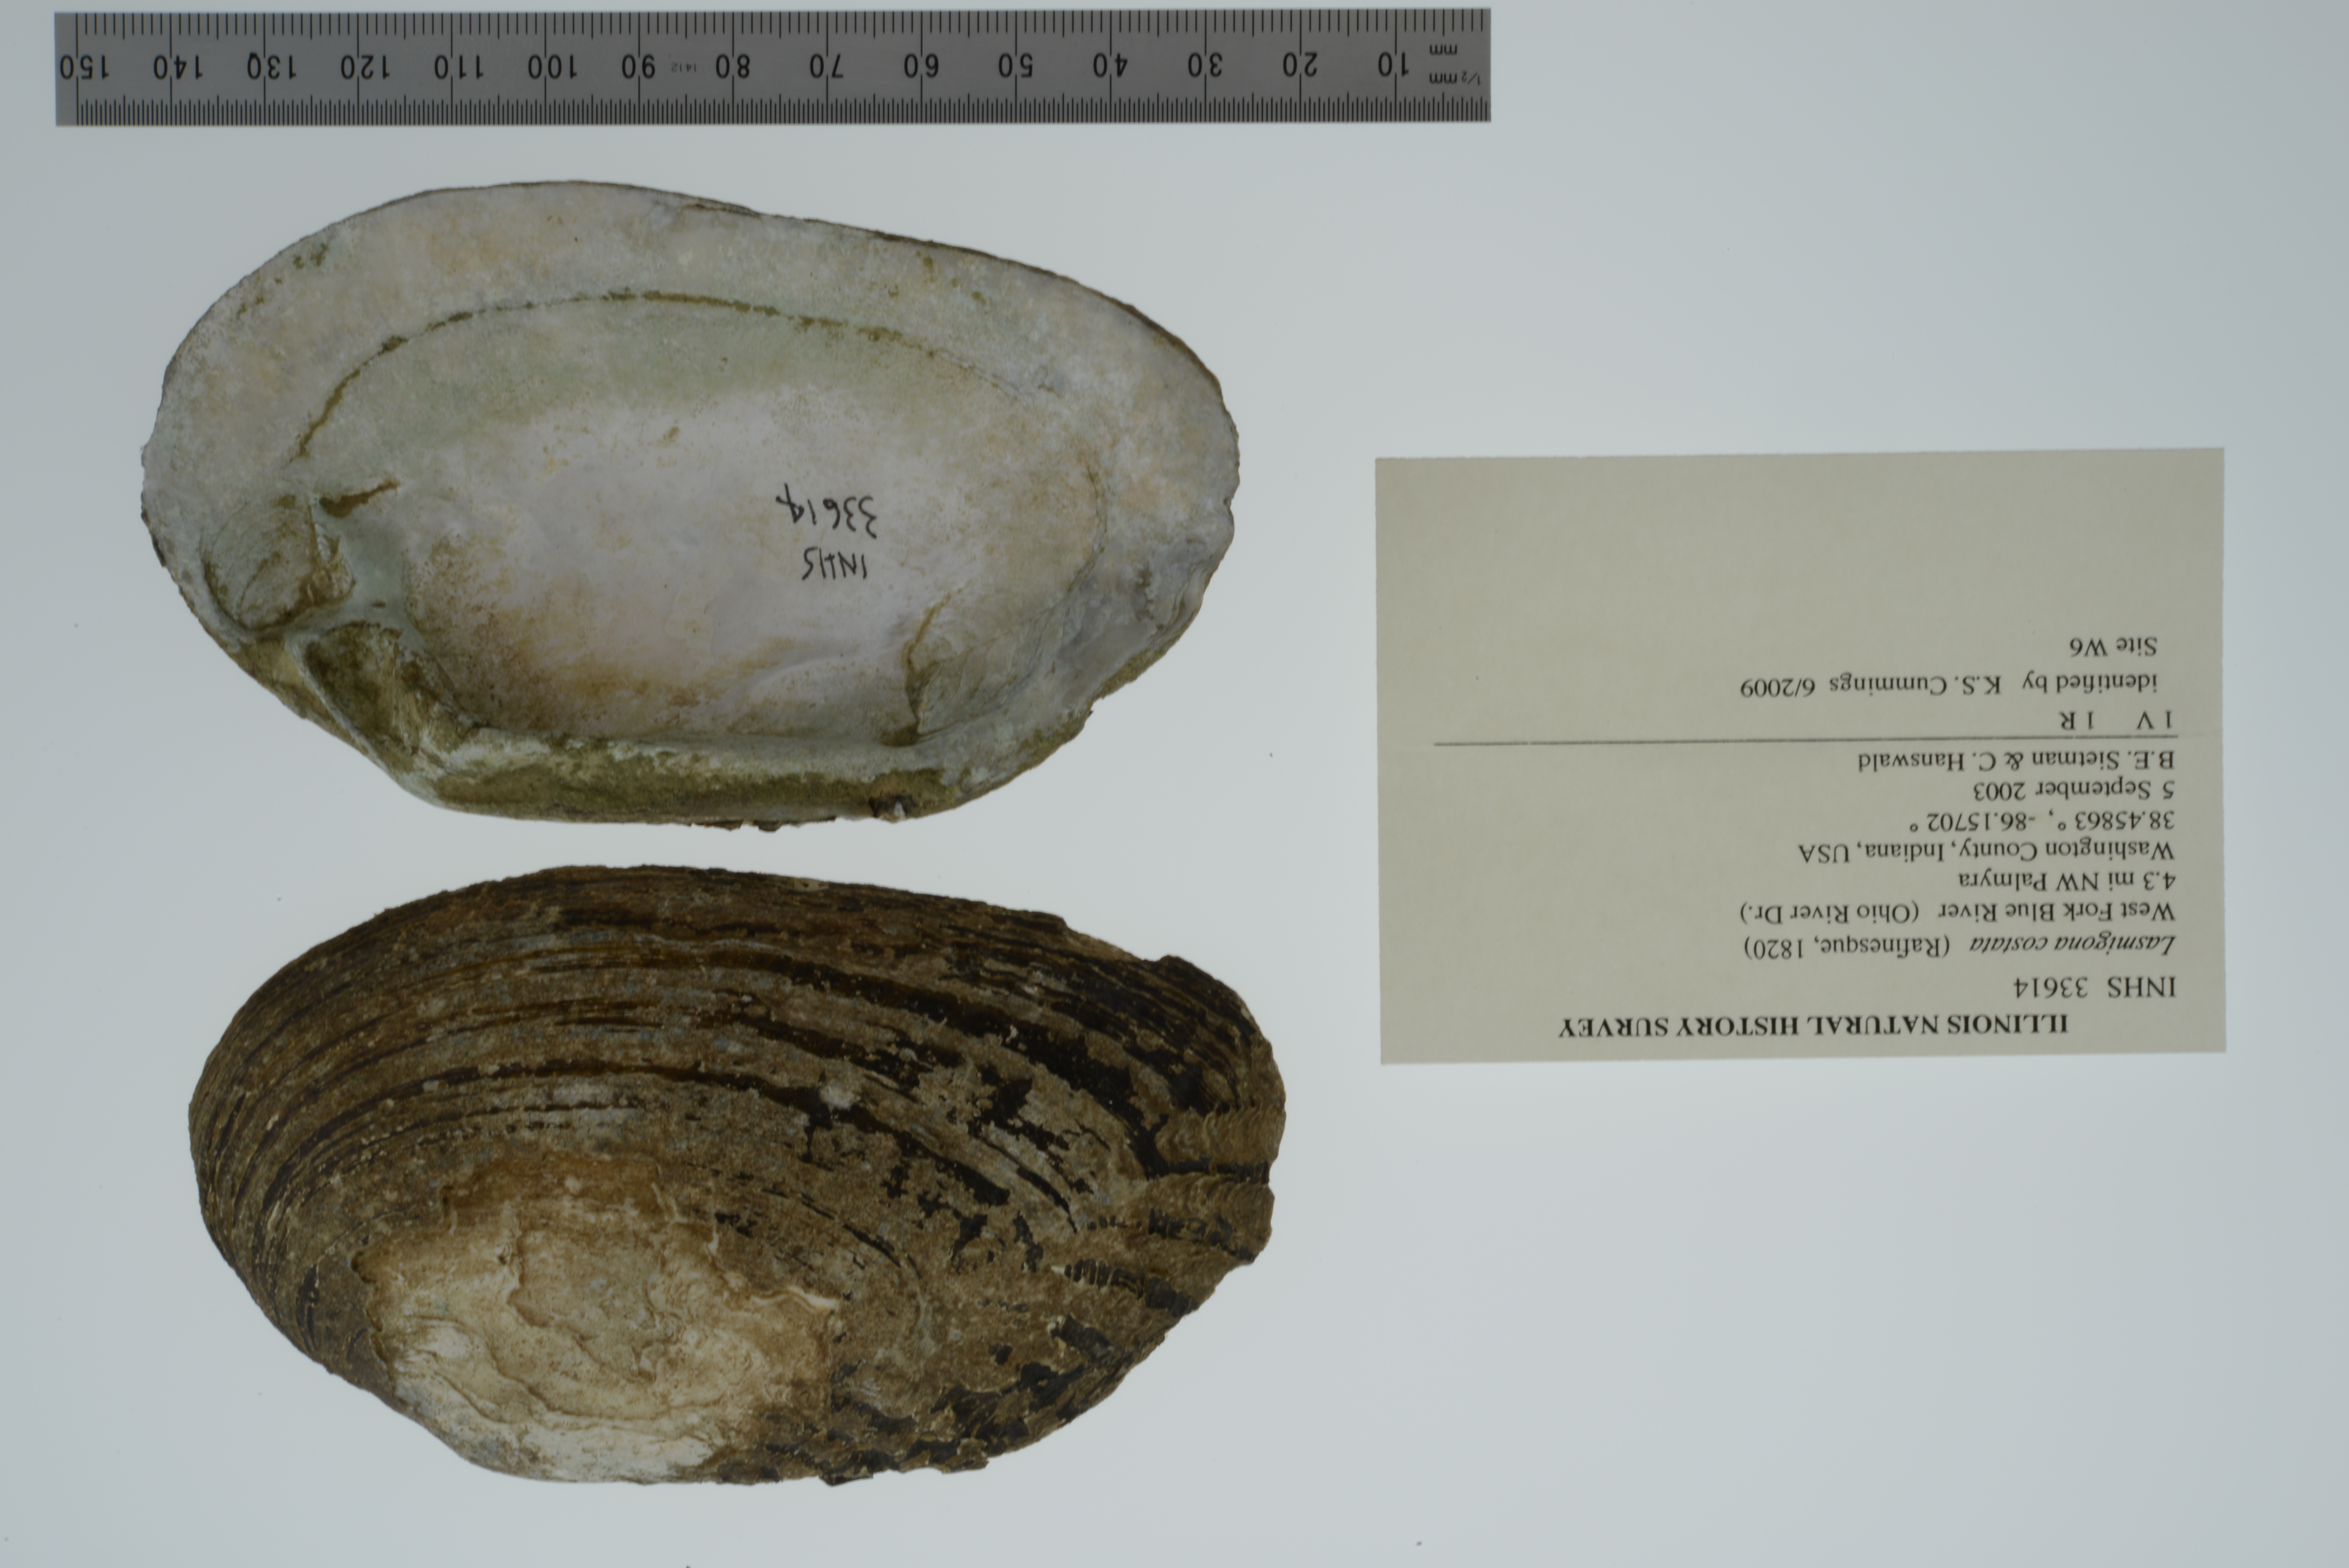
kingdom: Animalia
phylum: Mollusca
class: Bivalvia
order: Unionida
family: Unionidae
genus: Lasmigona
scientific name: Lasmigona costata
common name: Flutedshell
